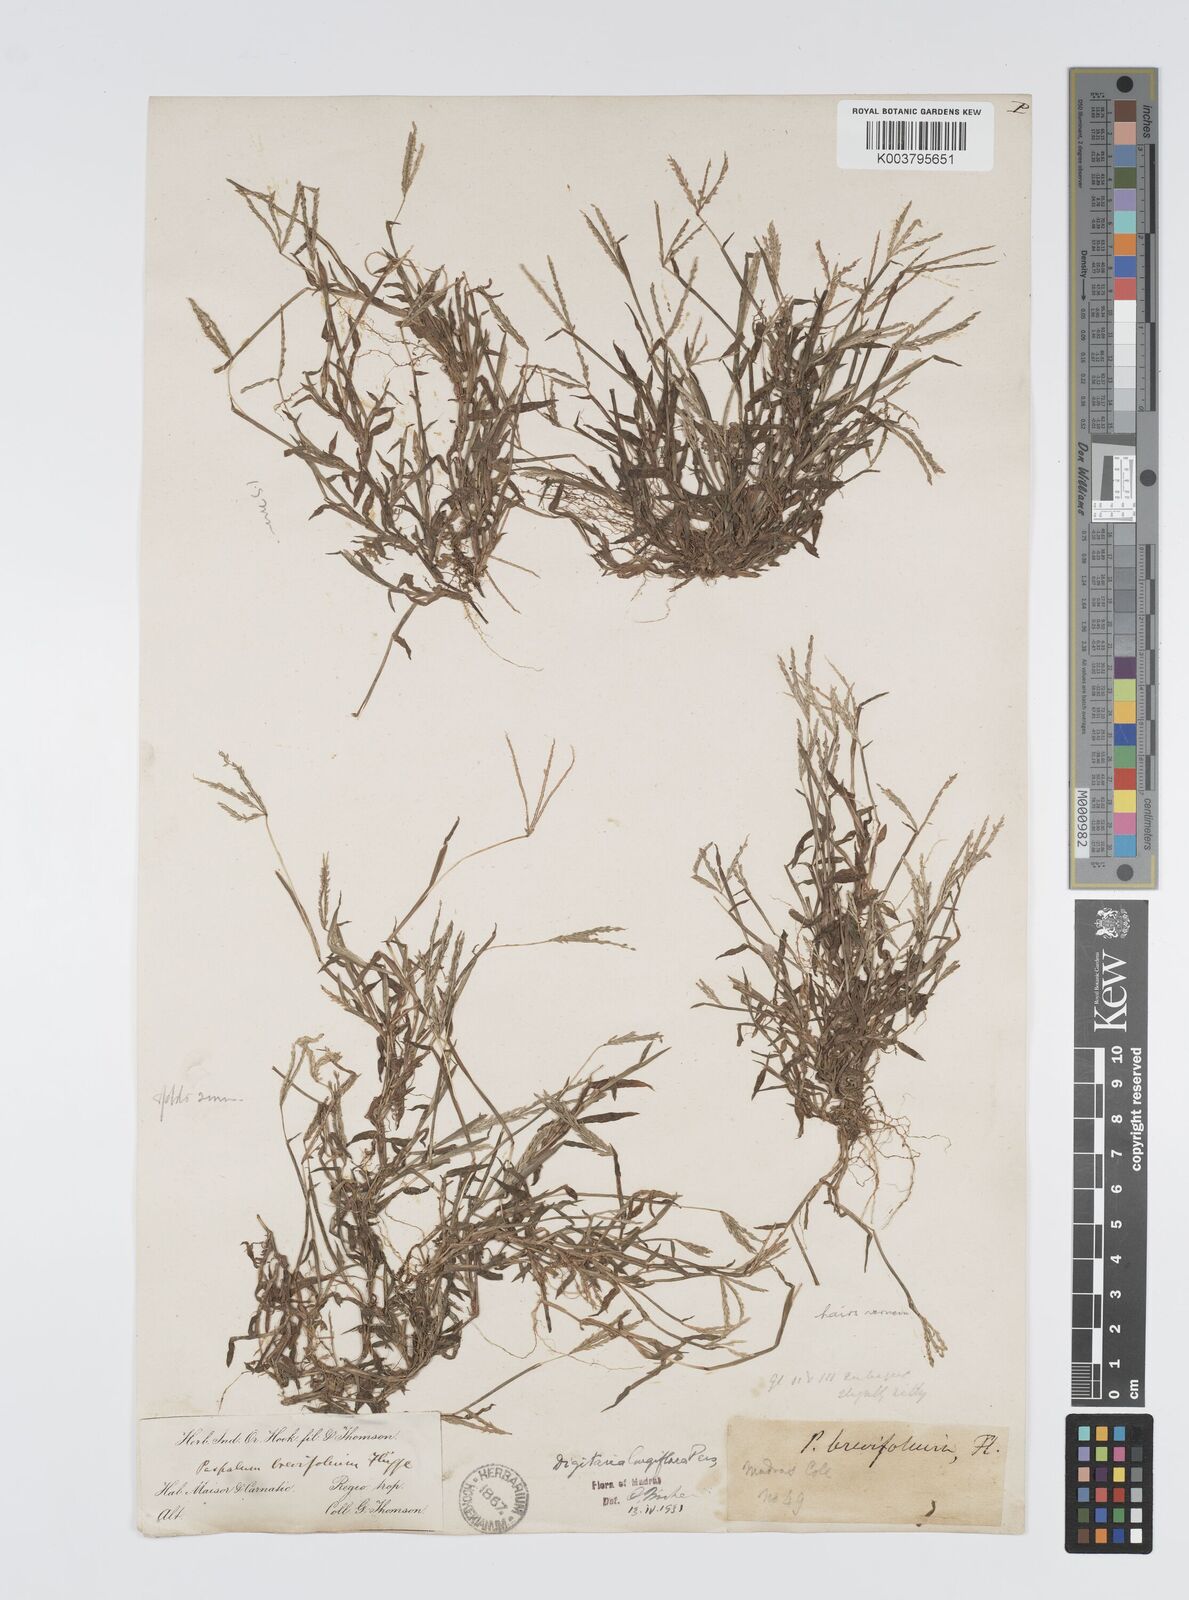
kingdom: Plantae
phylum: Tracheophyta
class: Liliopsida
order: Poales
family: Poaceae
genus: Digitaria
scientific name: Digitaria longiflora
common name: Wire crabgrass
